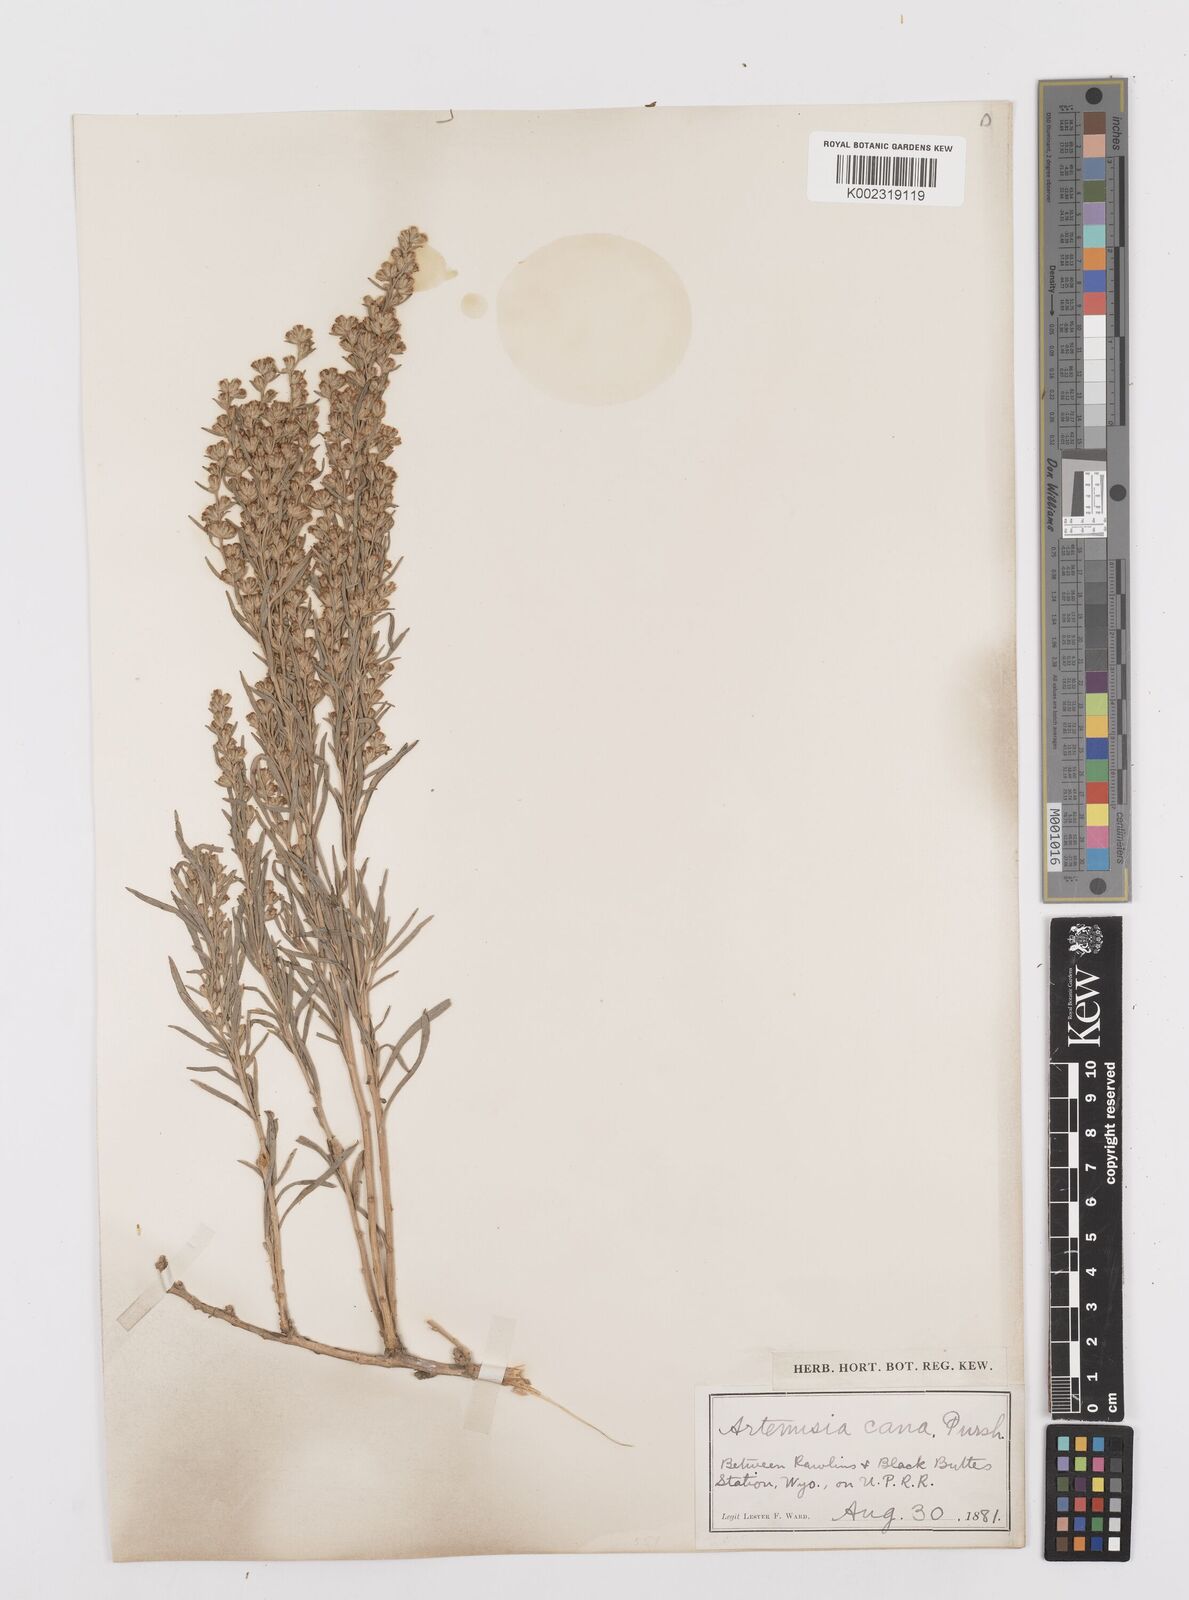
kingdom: Plantae
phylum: Tracheophyta
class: Magnoliopsida
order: Asterales
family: Asteraceae
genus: Artemisia
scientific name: Artemisia cana
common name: Silver sagebrush
